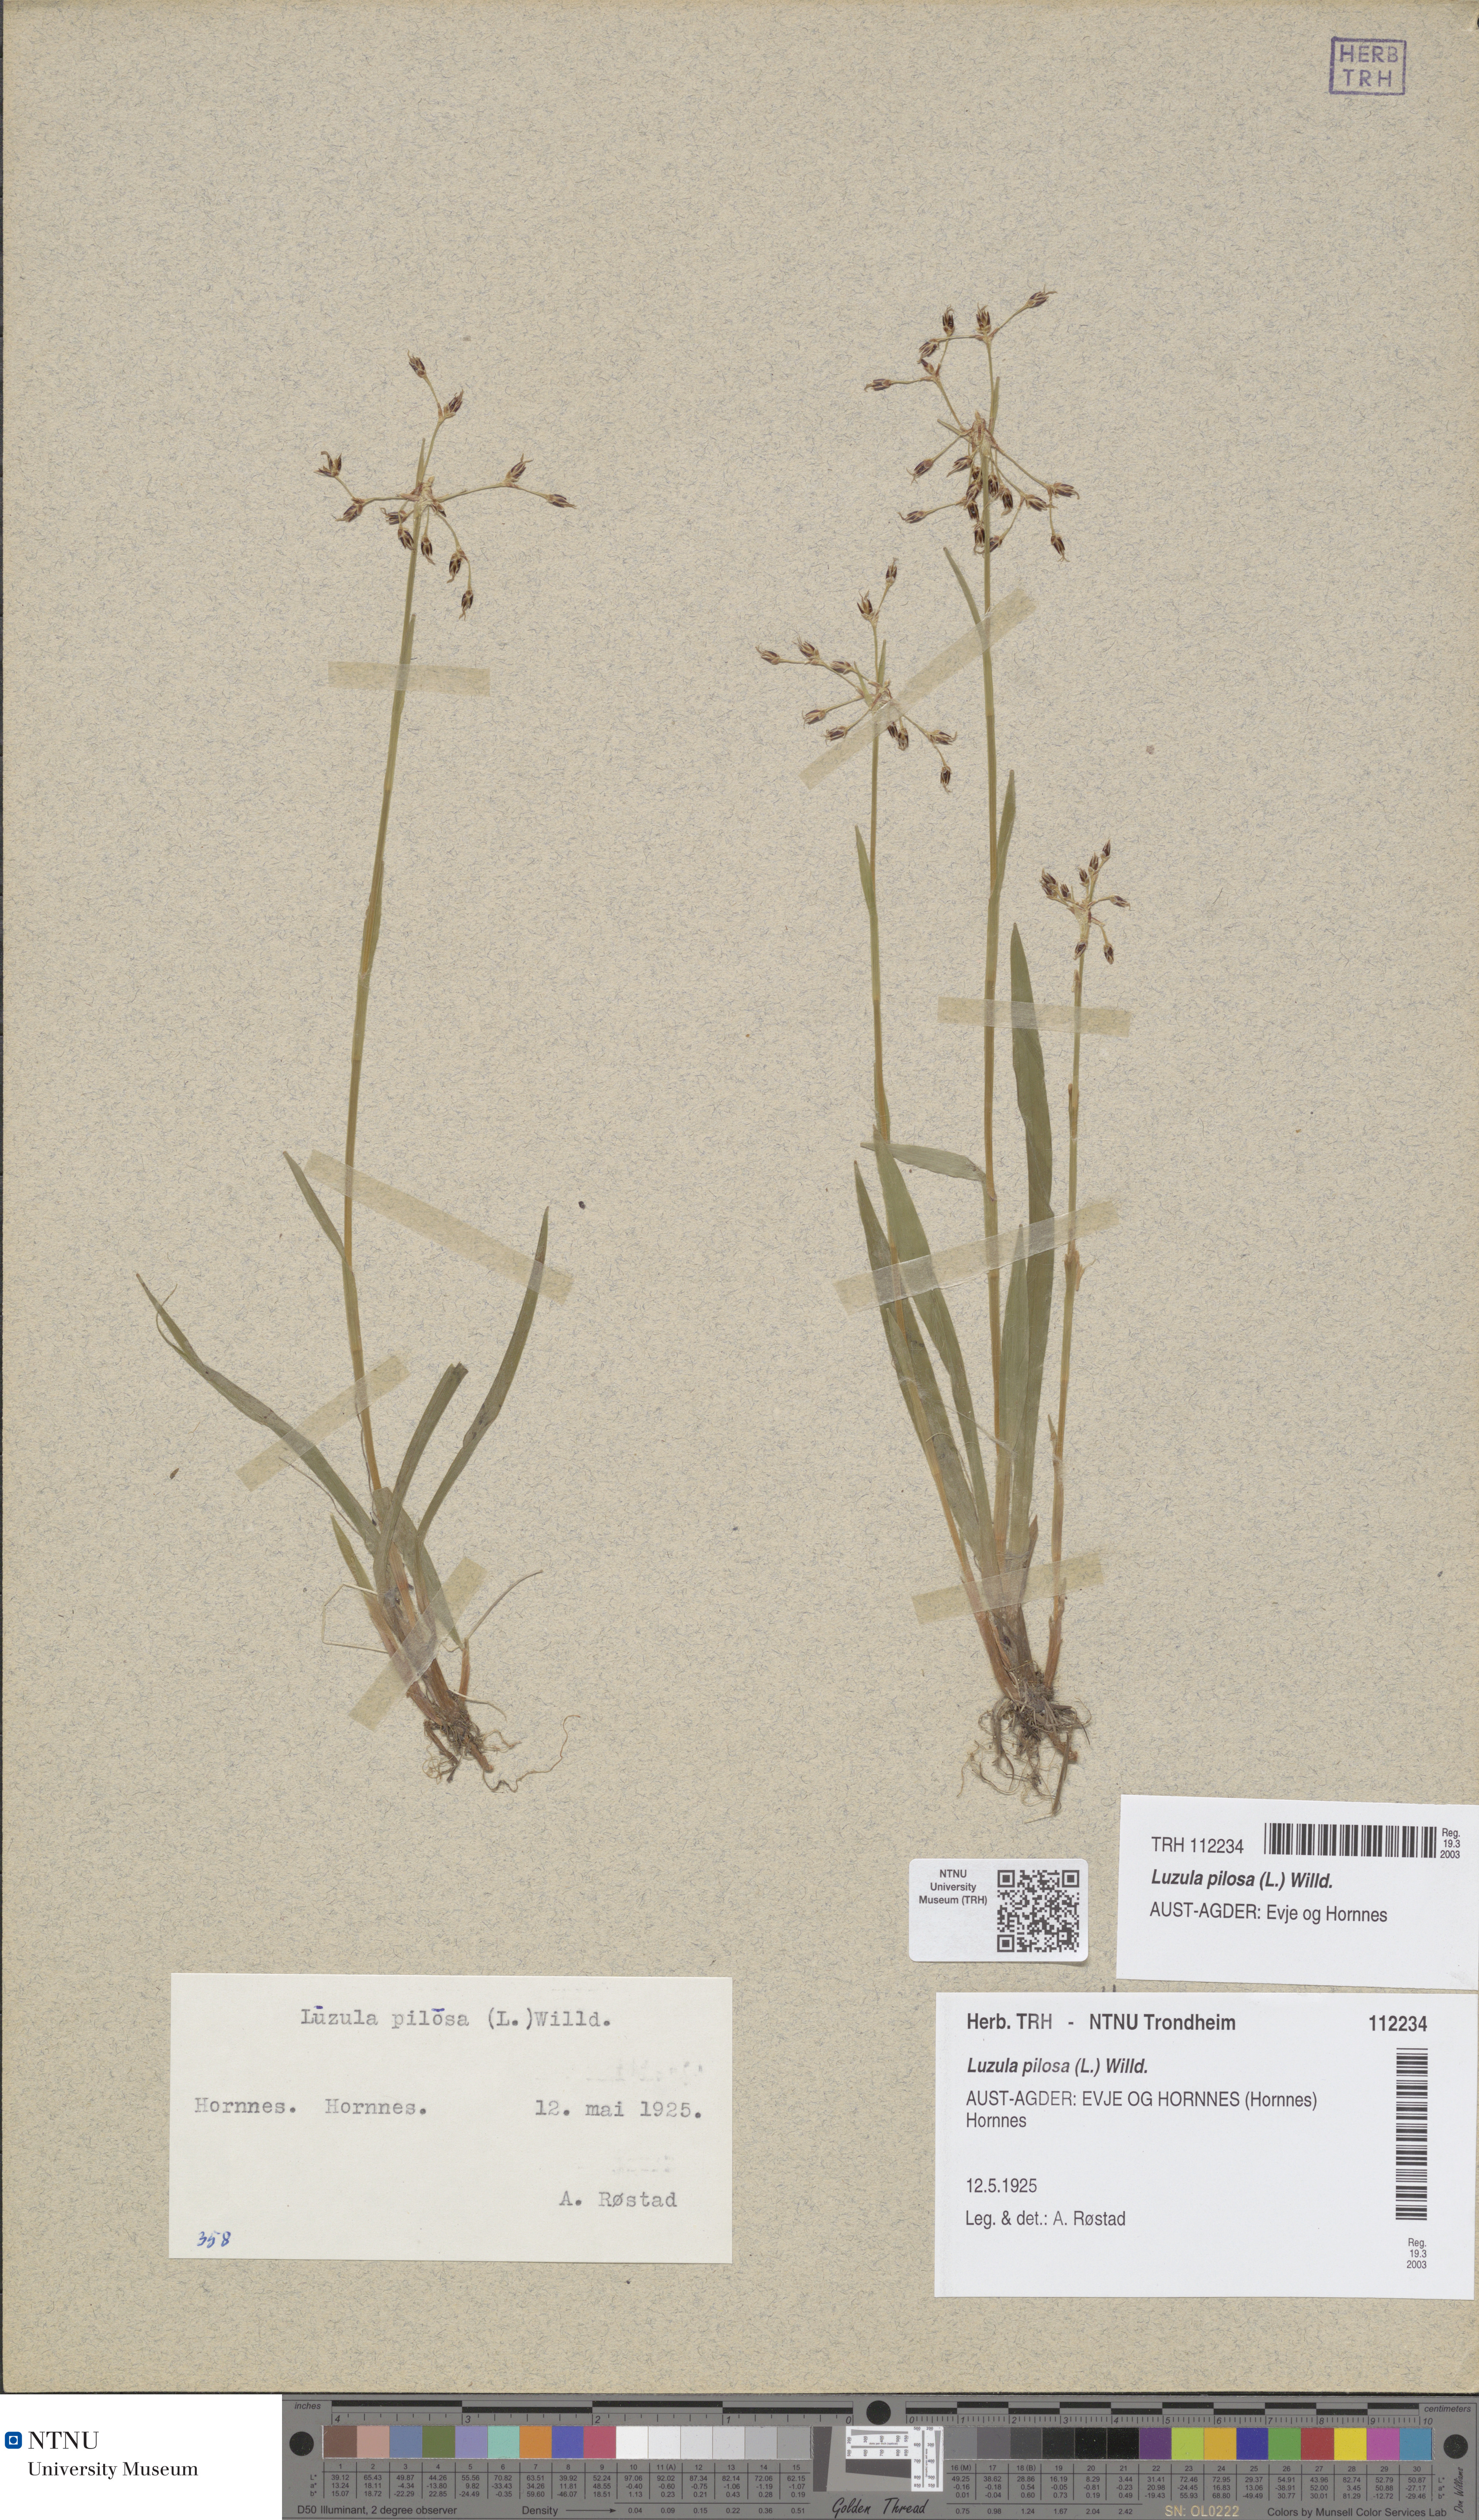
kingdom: Plantae
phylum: Tracheophyta
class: Liliopsida
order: Poales
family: Juncaceae
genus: Luzula
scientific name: Luzula pilosa
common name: Hairy wood-rush
